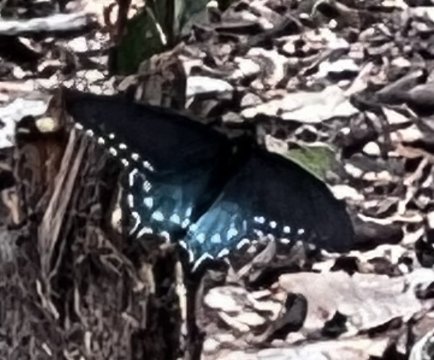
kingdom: Animalia
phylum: Arthropoda
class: Insecta
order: Lepidoptera
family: Papilionidae
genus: Battus
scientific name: Battus philenor
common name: Pipevine Swallowtail
